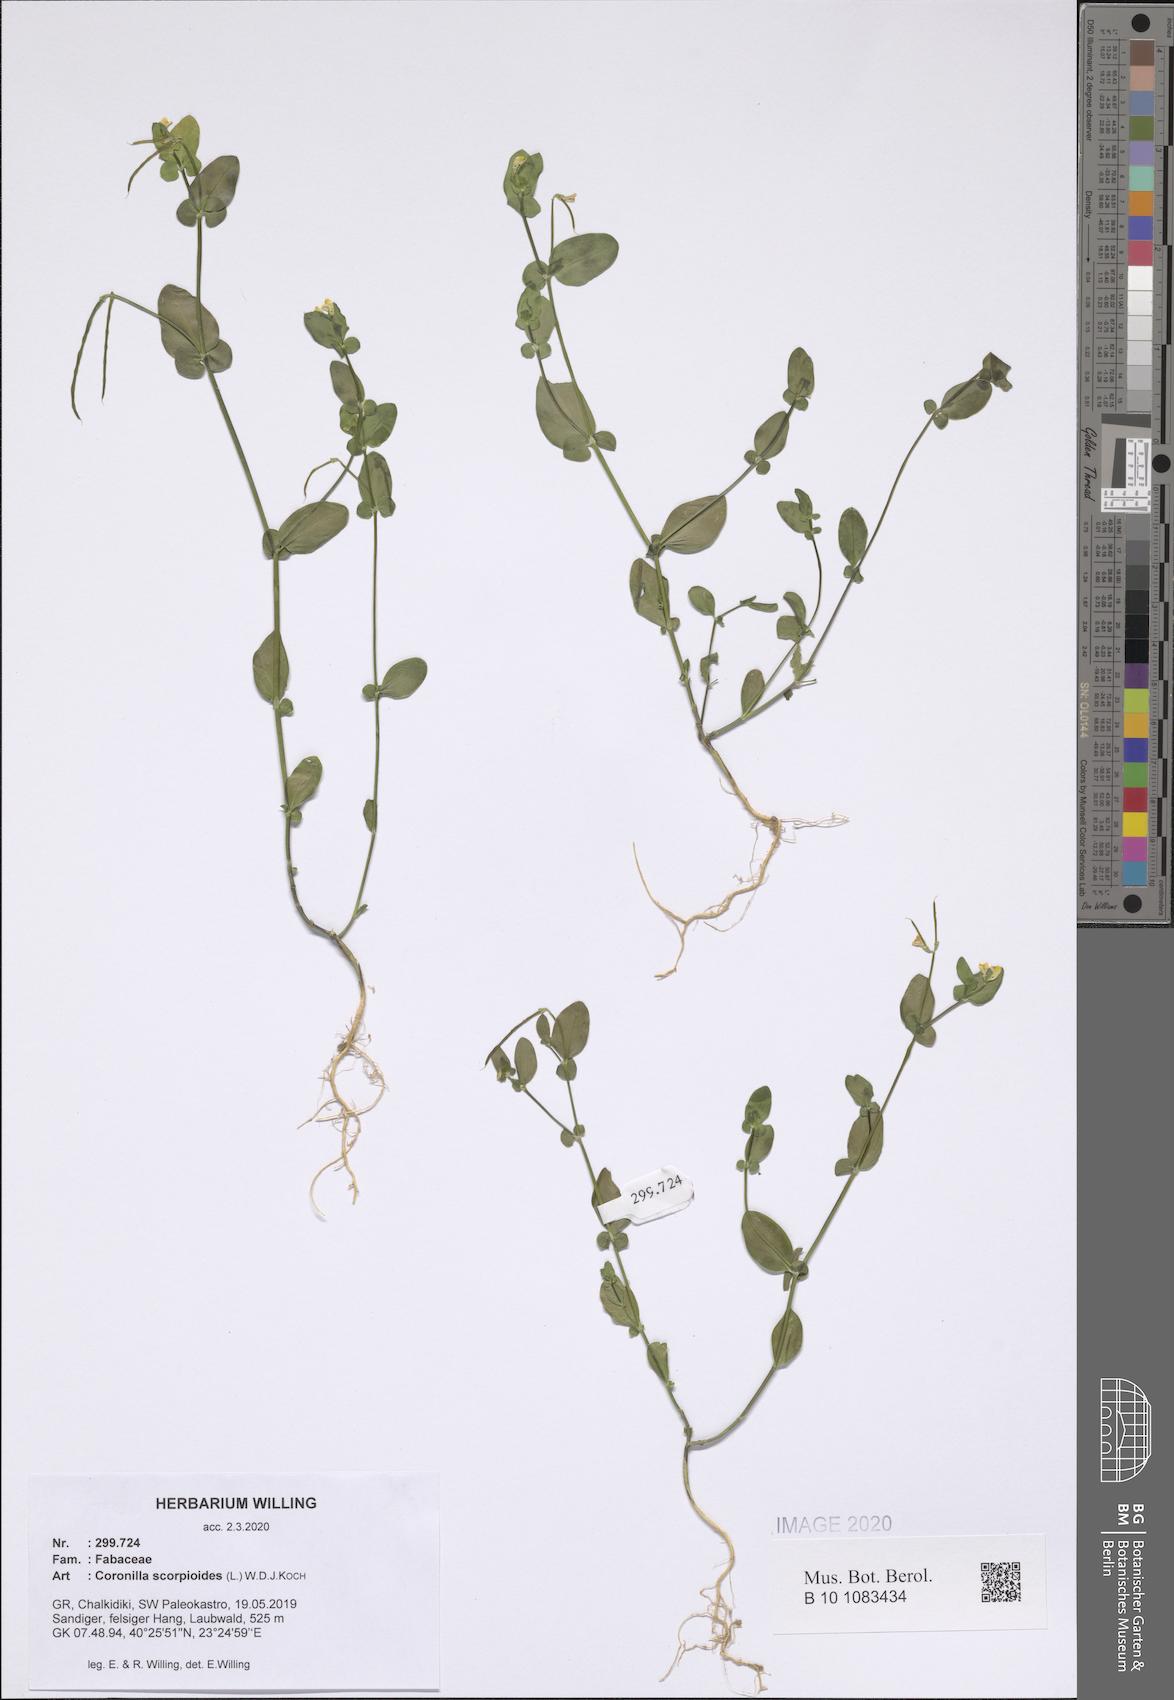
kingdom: Plantae
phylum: Tracheophyta
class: Magnoliopsida
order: Fabales
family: Fabaceae
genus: Coronilla
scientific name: Coronilla scorpioides
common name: Annual scorpion-vetch
